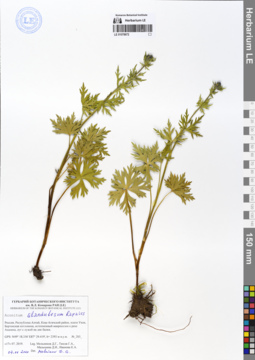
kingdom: Plantae
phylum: Tracheophyta
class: Magnoliopsida
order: Ranunculales
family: Ranunculaceae
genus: Aconitum
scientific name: Aconitum glandulosum
